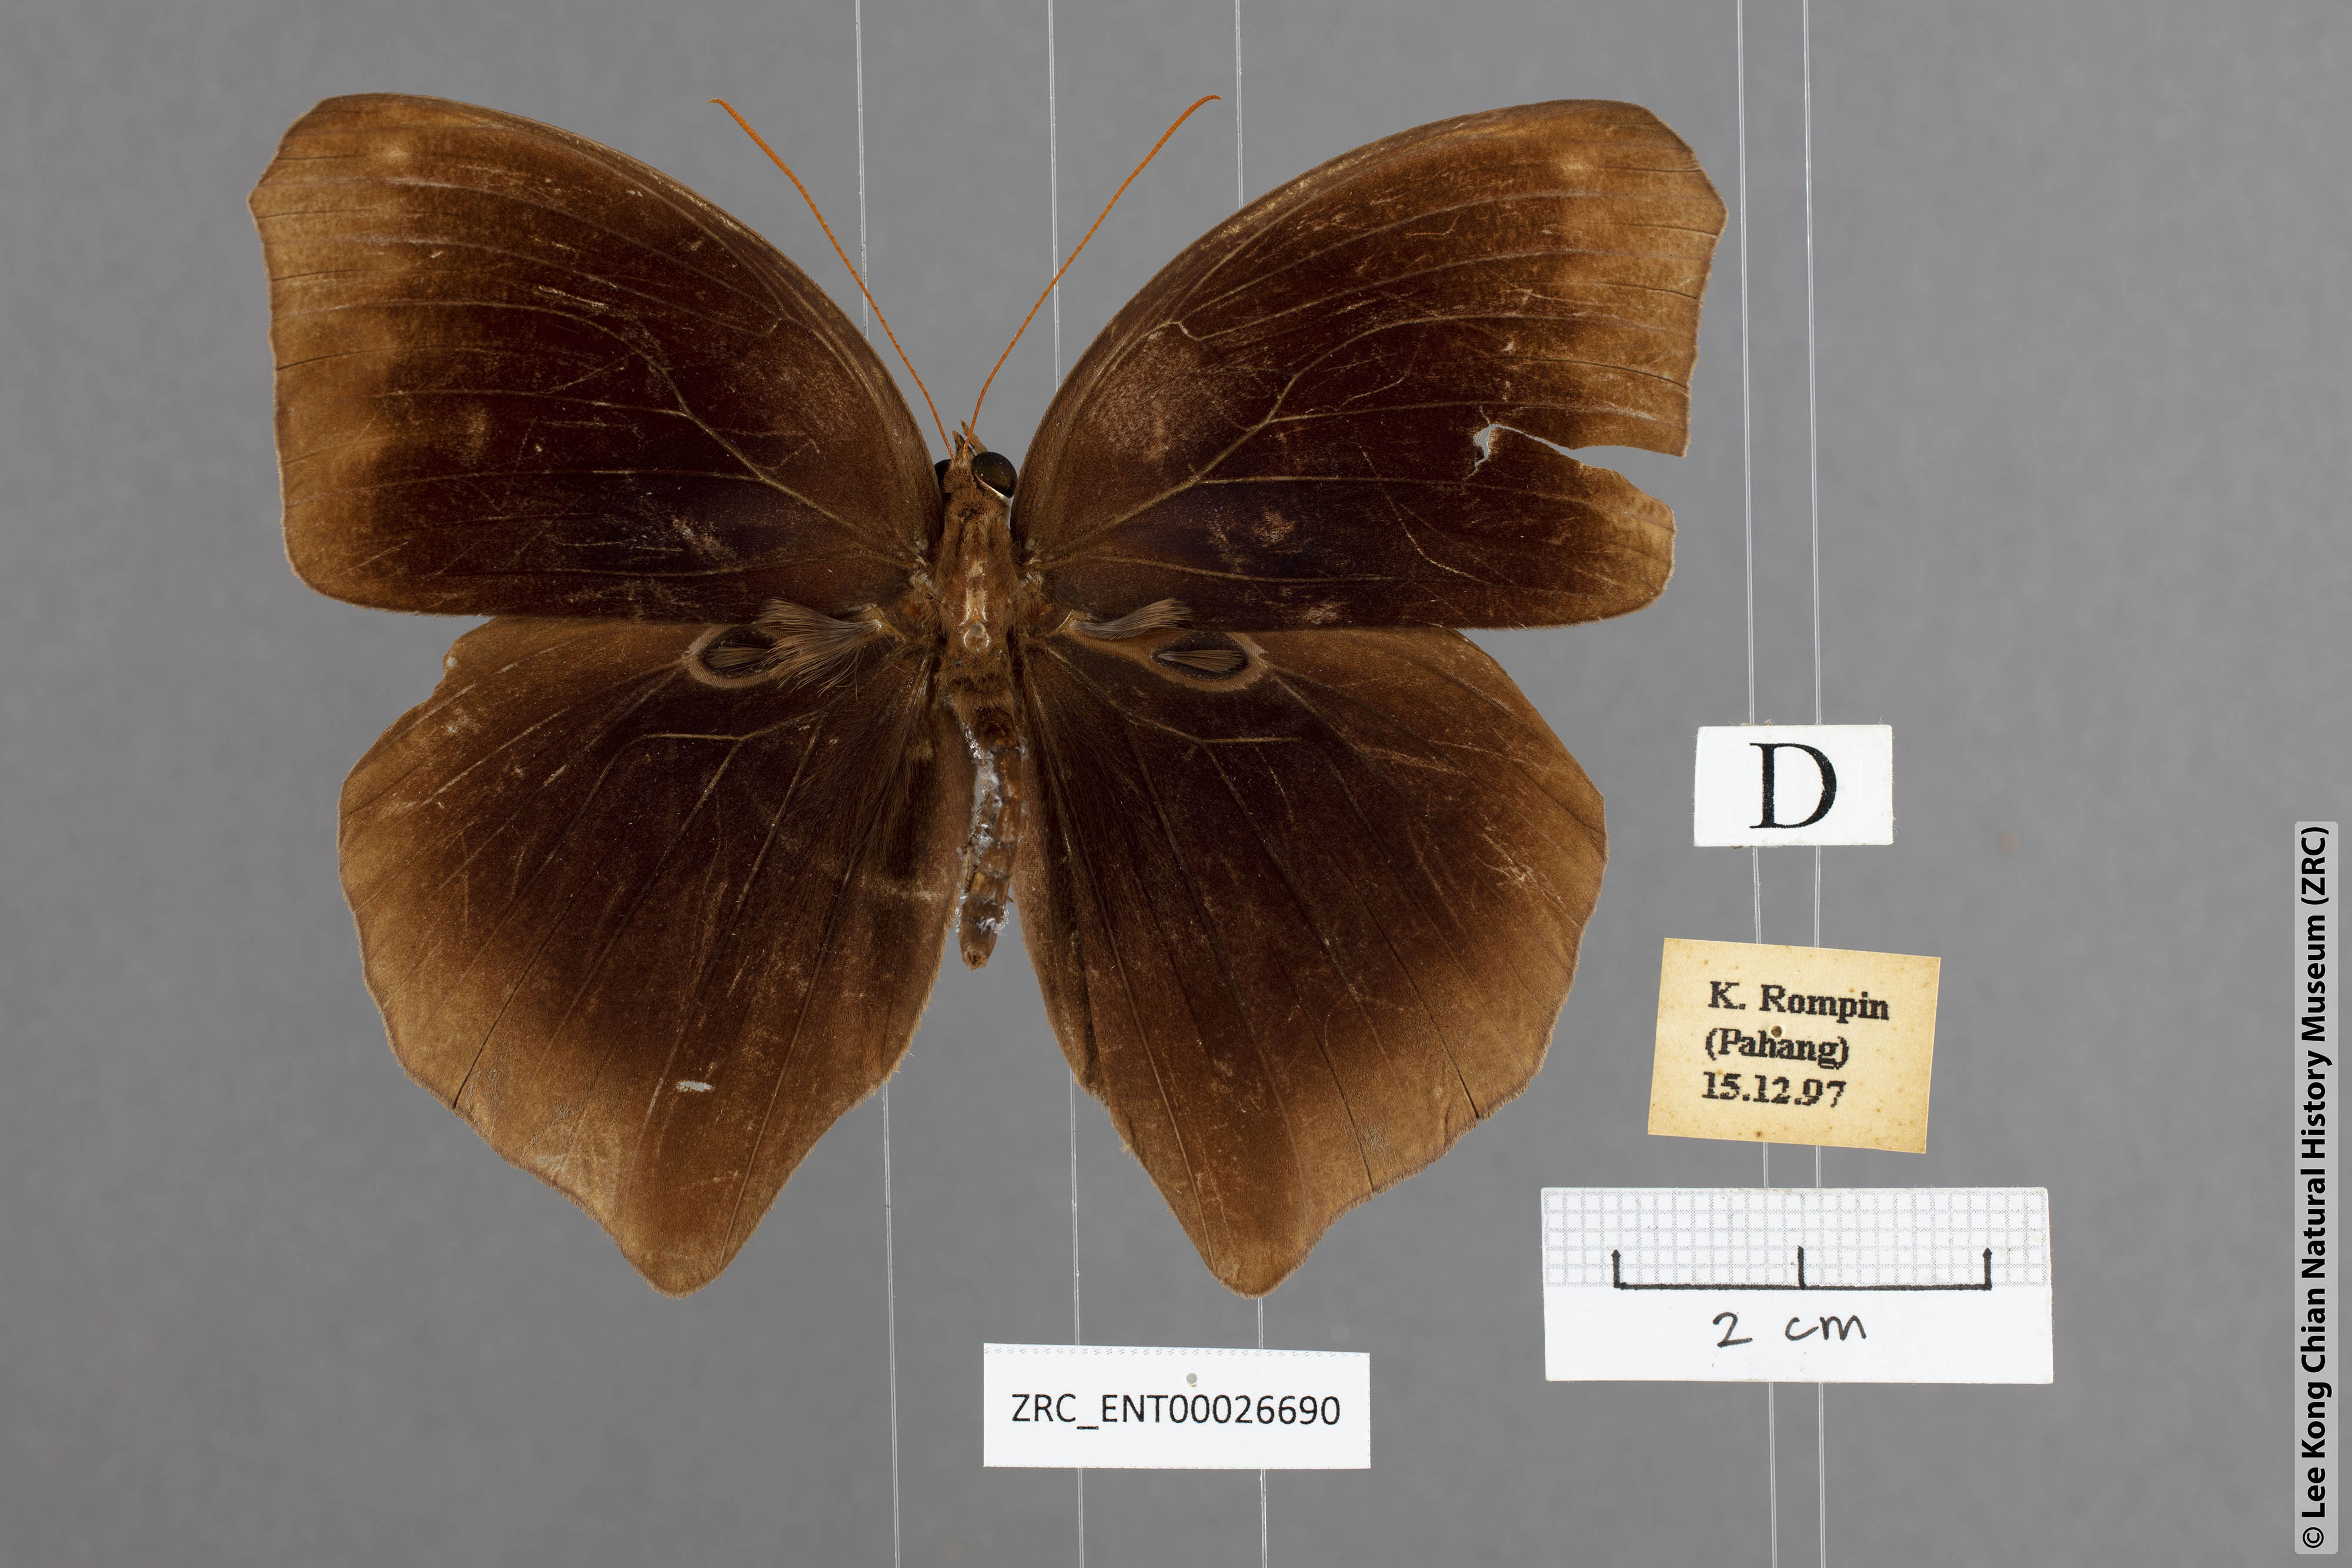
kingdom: Animalia
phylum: Arthropoda
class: Insecta
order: Lepidoptera
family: Nymphalidae
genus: Thaumantis
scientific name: Thaumantis noureddin
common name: Dark jungle glory
